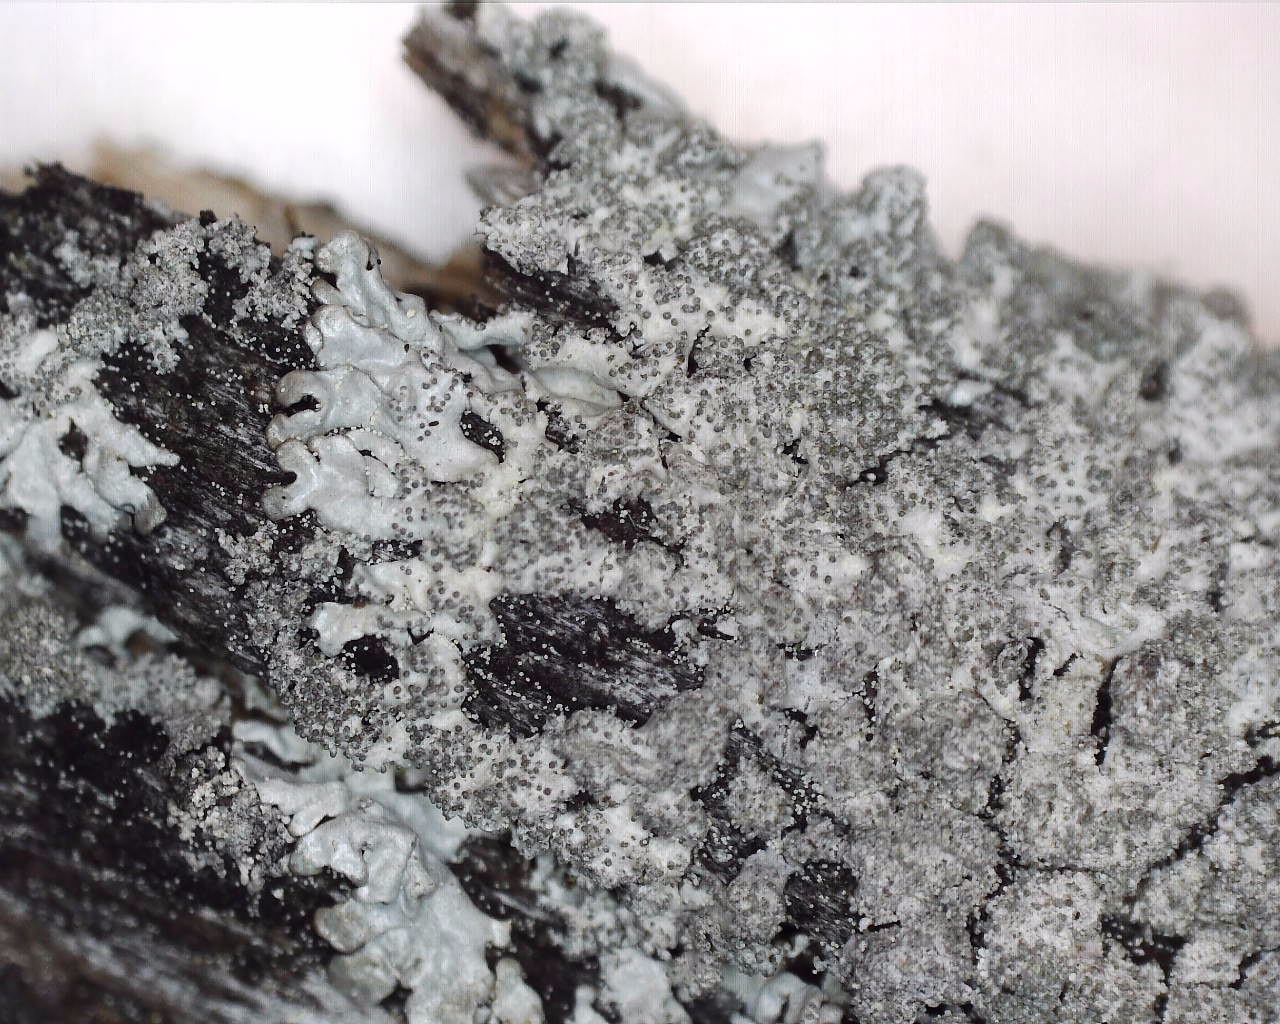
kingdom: Fungi
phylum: Ascomycota
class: Lecanoromycetes
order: Lecanorales
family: Parmeliaceae
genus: Imshaugia
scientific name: Imshaugia aleurites
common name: kliddet stolpelav
